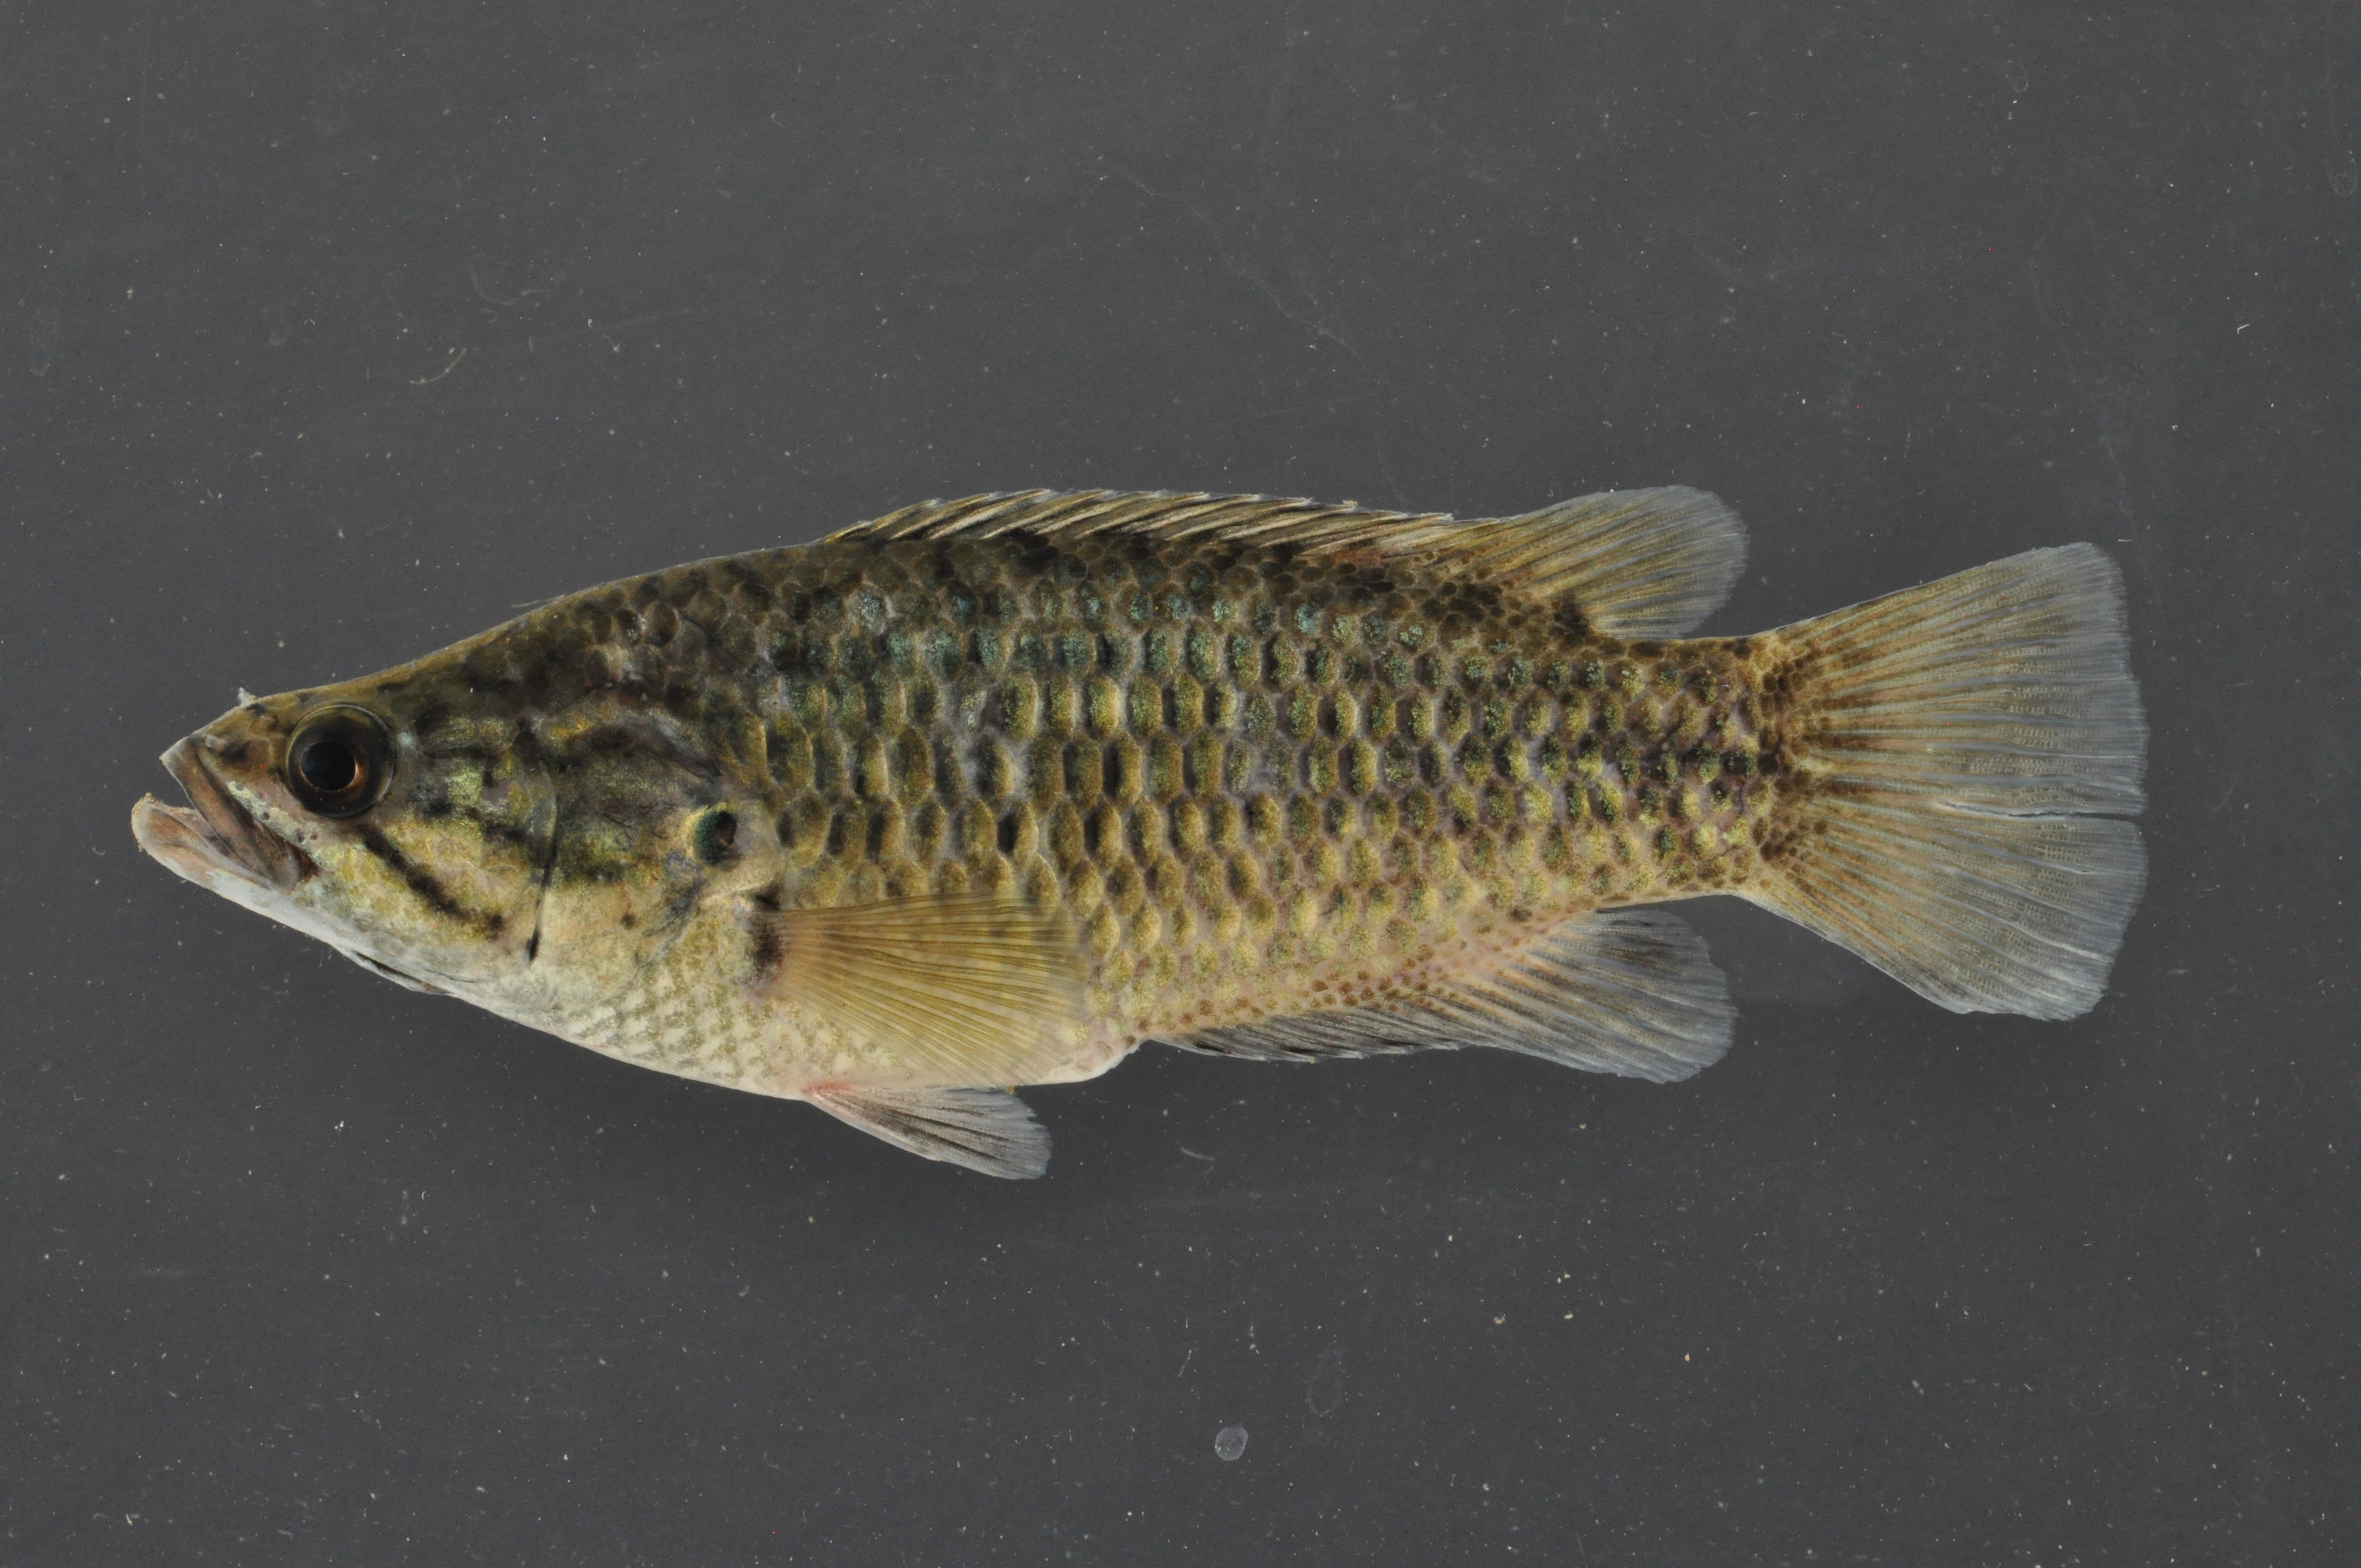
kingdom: Animalia
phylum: Chordata
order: Perciformes
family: Anabantidae
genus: Sandelia
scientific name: Sandelia capensis
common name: Cape kurper
